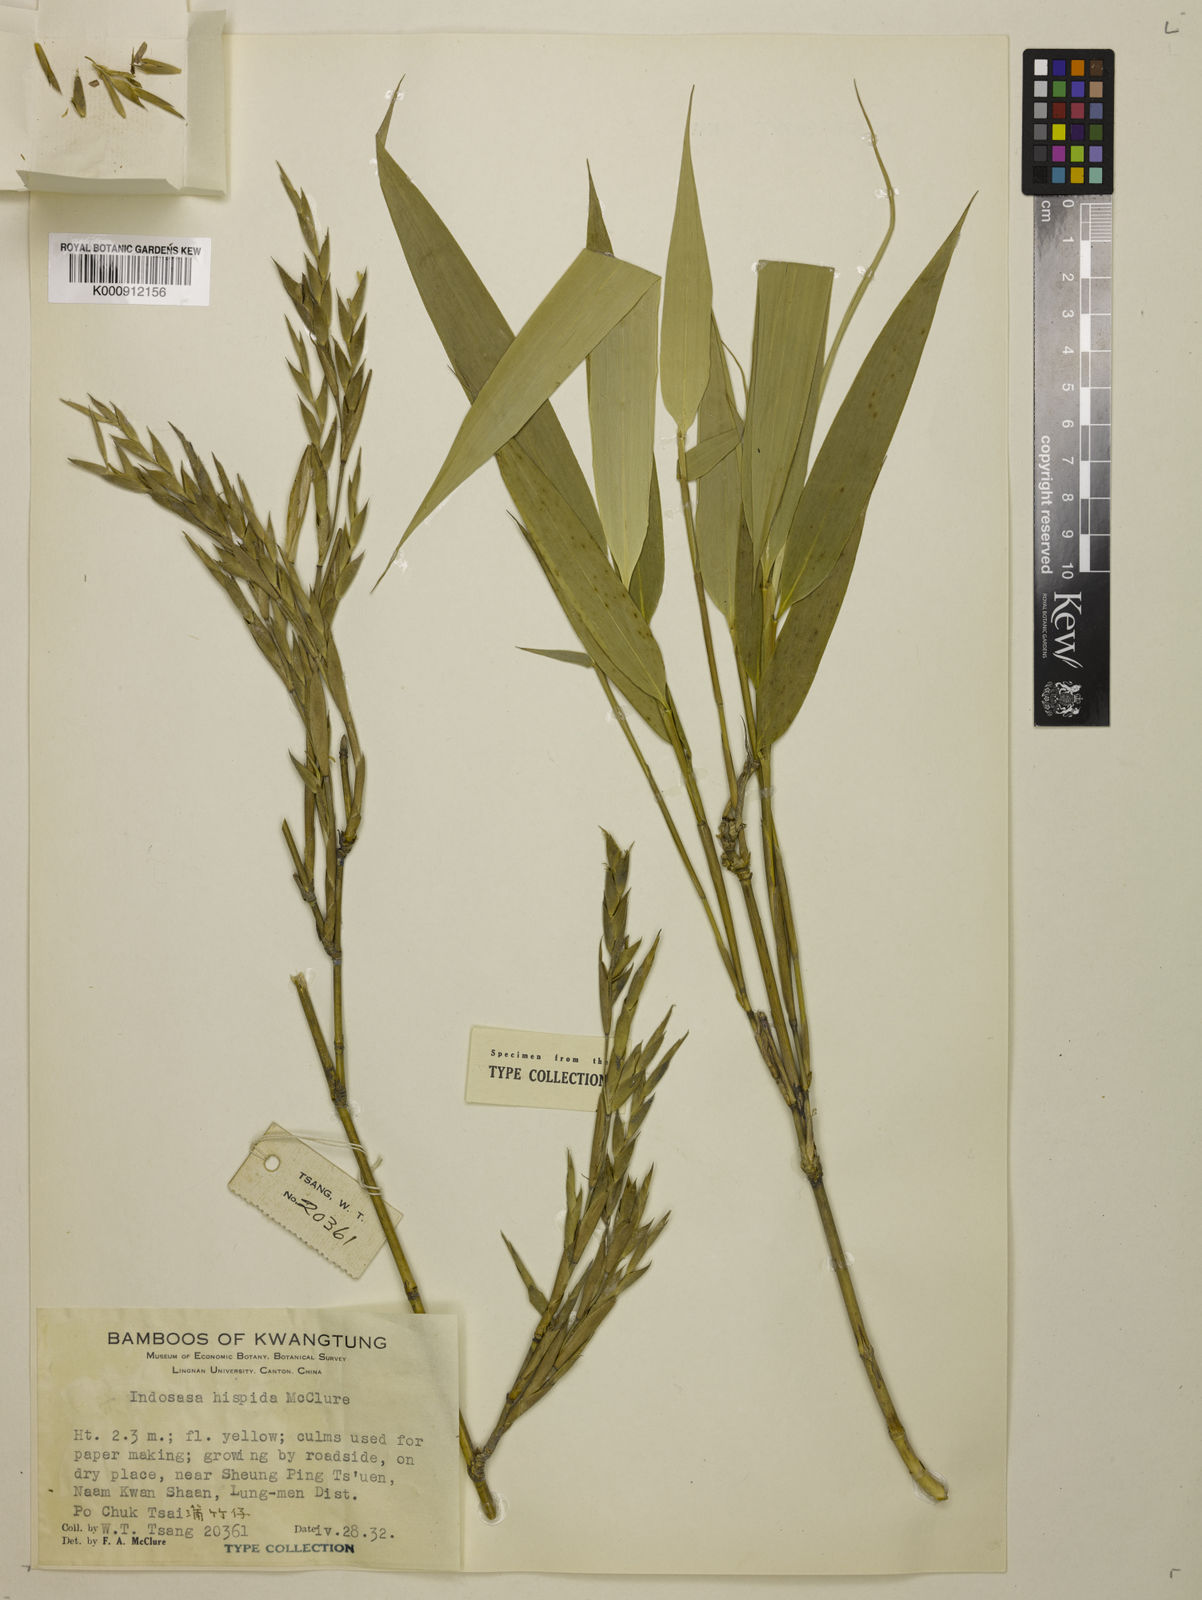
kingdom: Plantae
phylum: Tracheophyta
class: Liliopsida
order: Poales
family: Poaceae
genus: Indosasa
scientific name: Indosasa hispida
